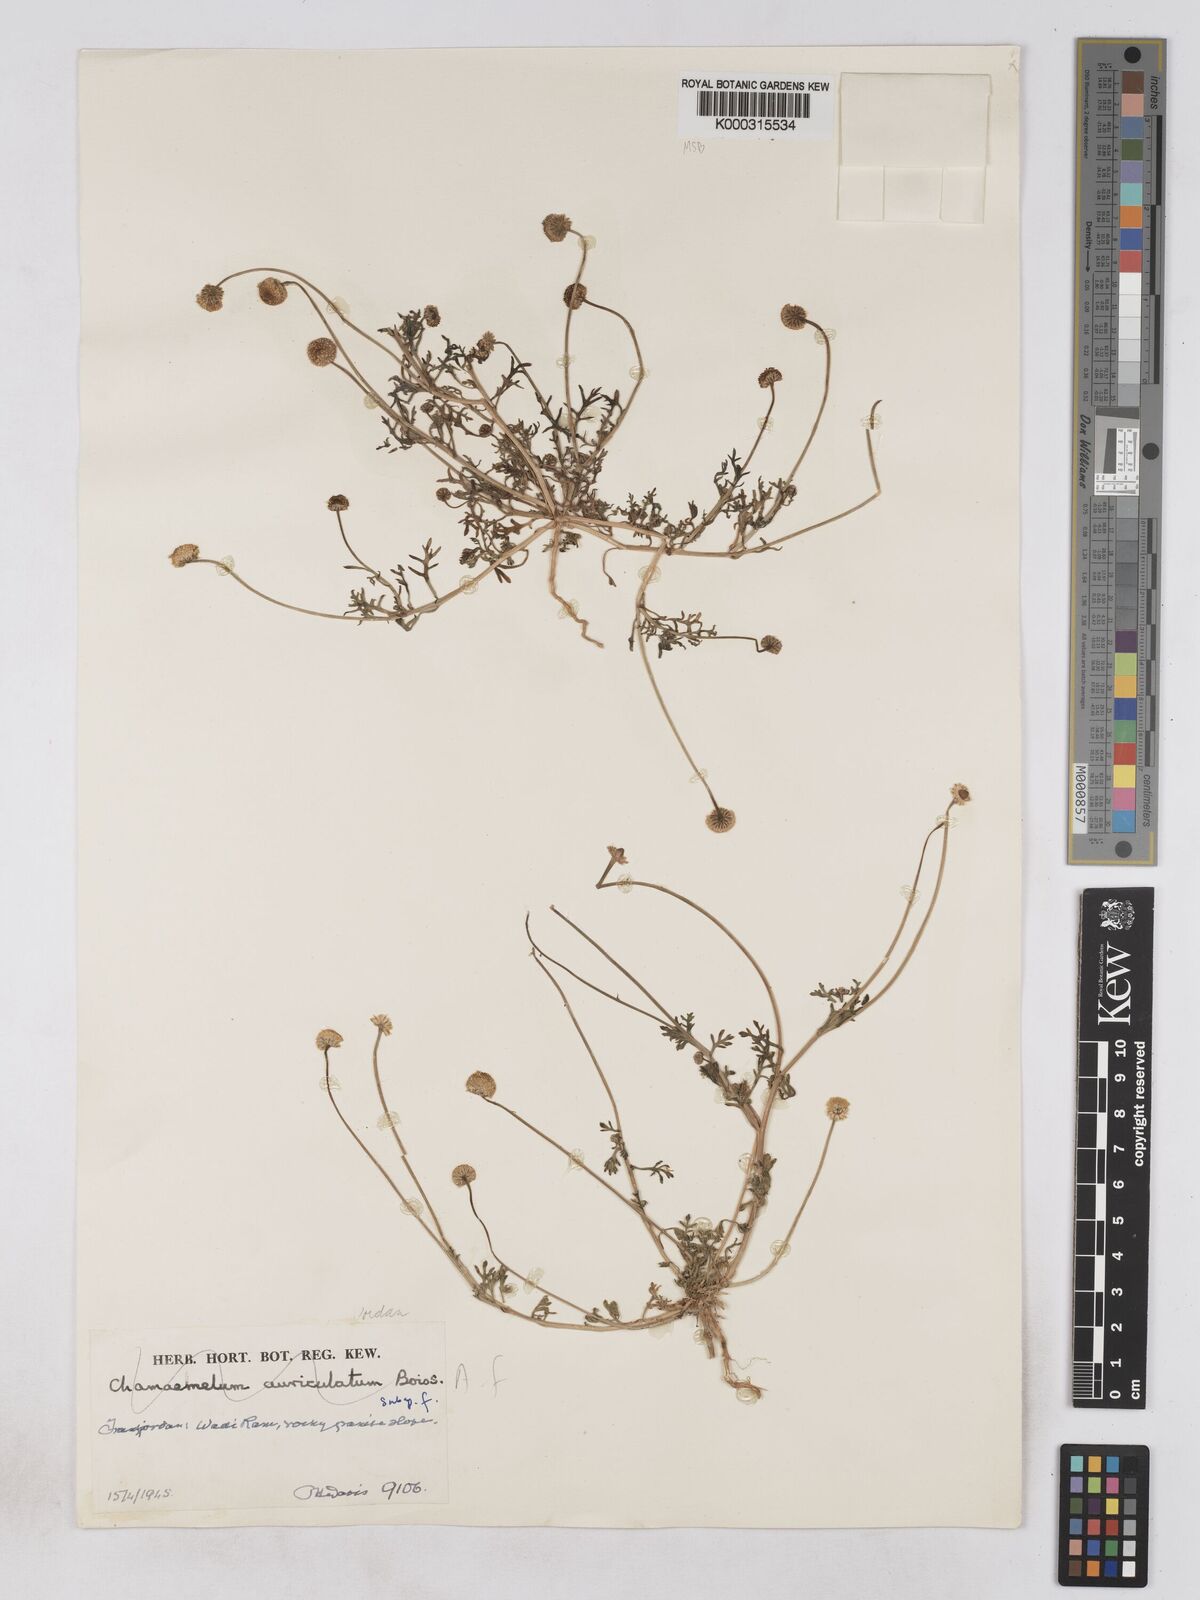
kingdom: Plantae
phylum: Tracheophyta
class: Magnoliopsida
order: Asterales
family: Asteraceae
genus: Otoglyphis
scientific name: Otoglyphis factorovskyi
